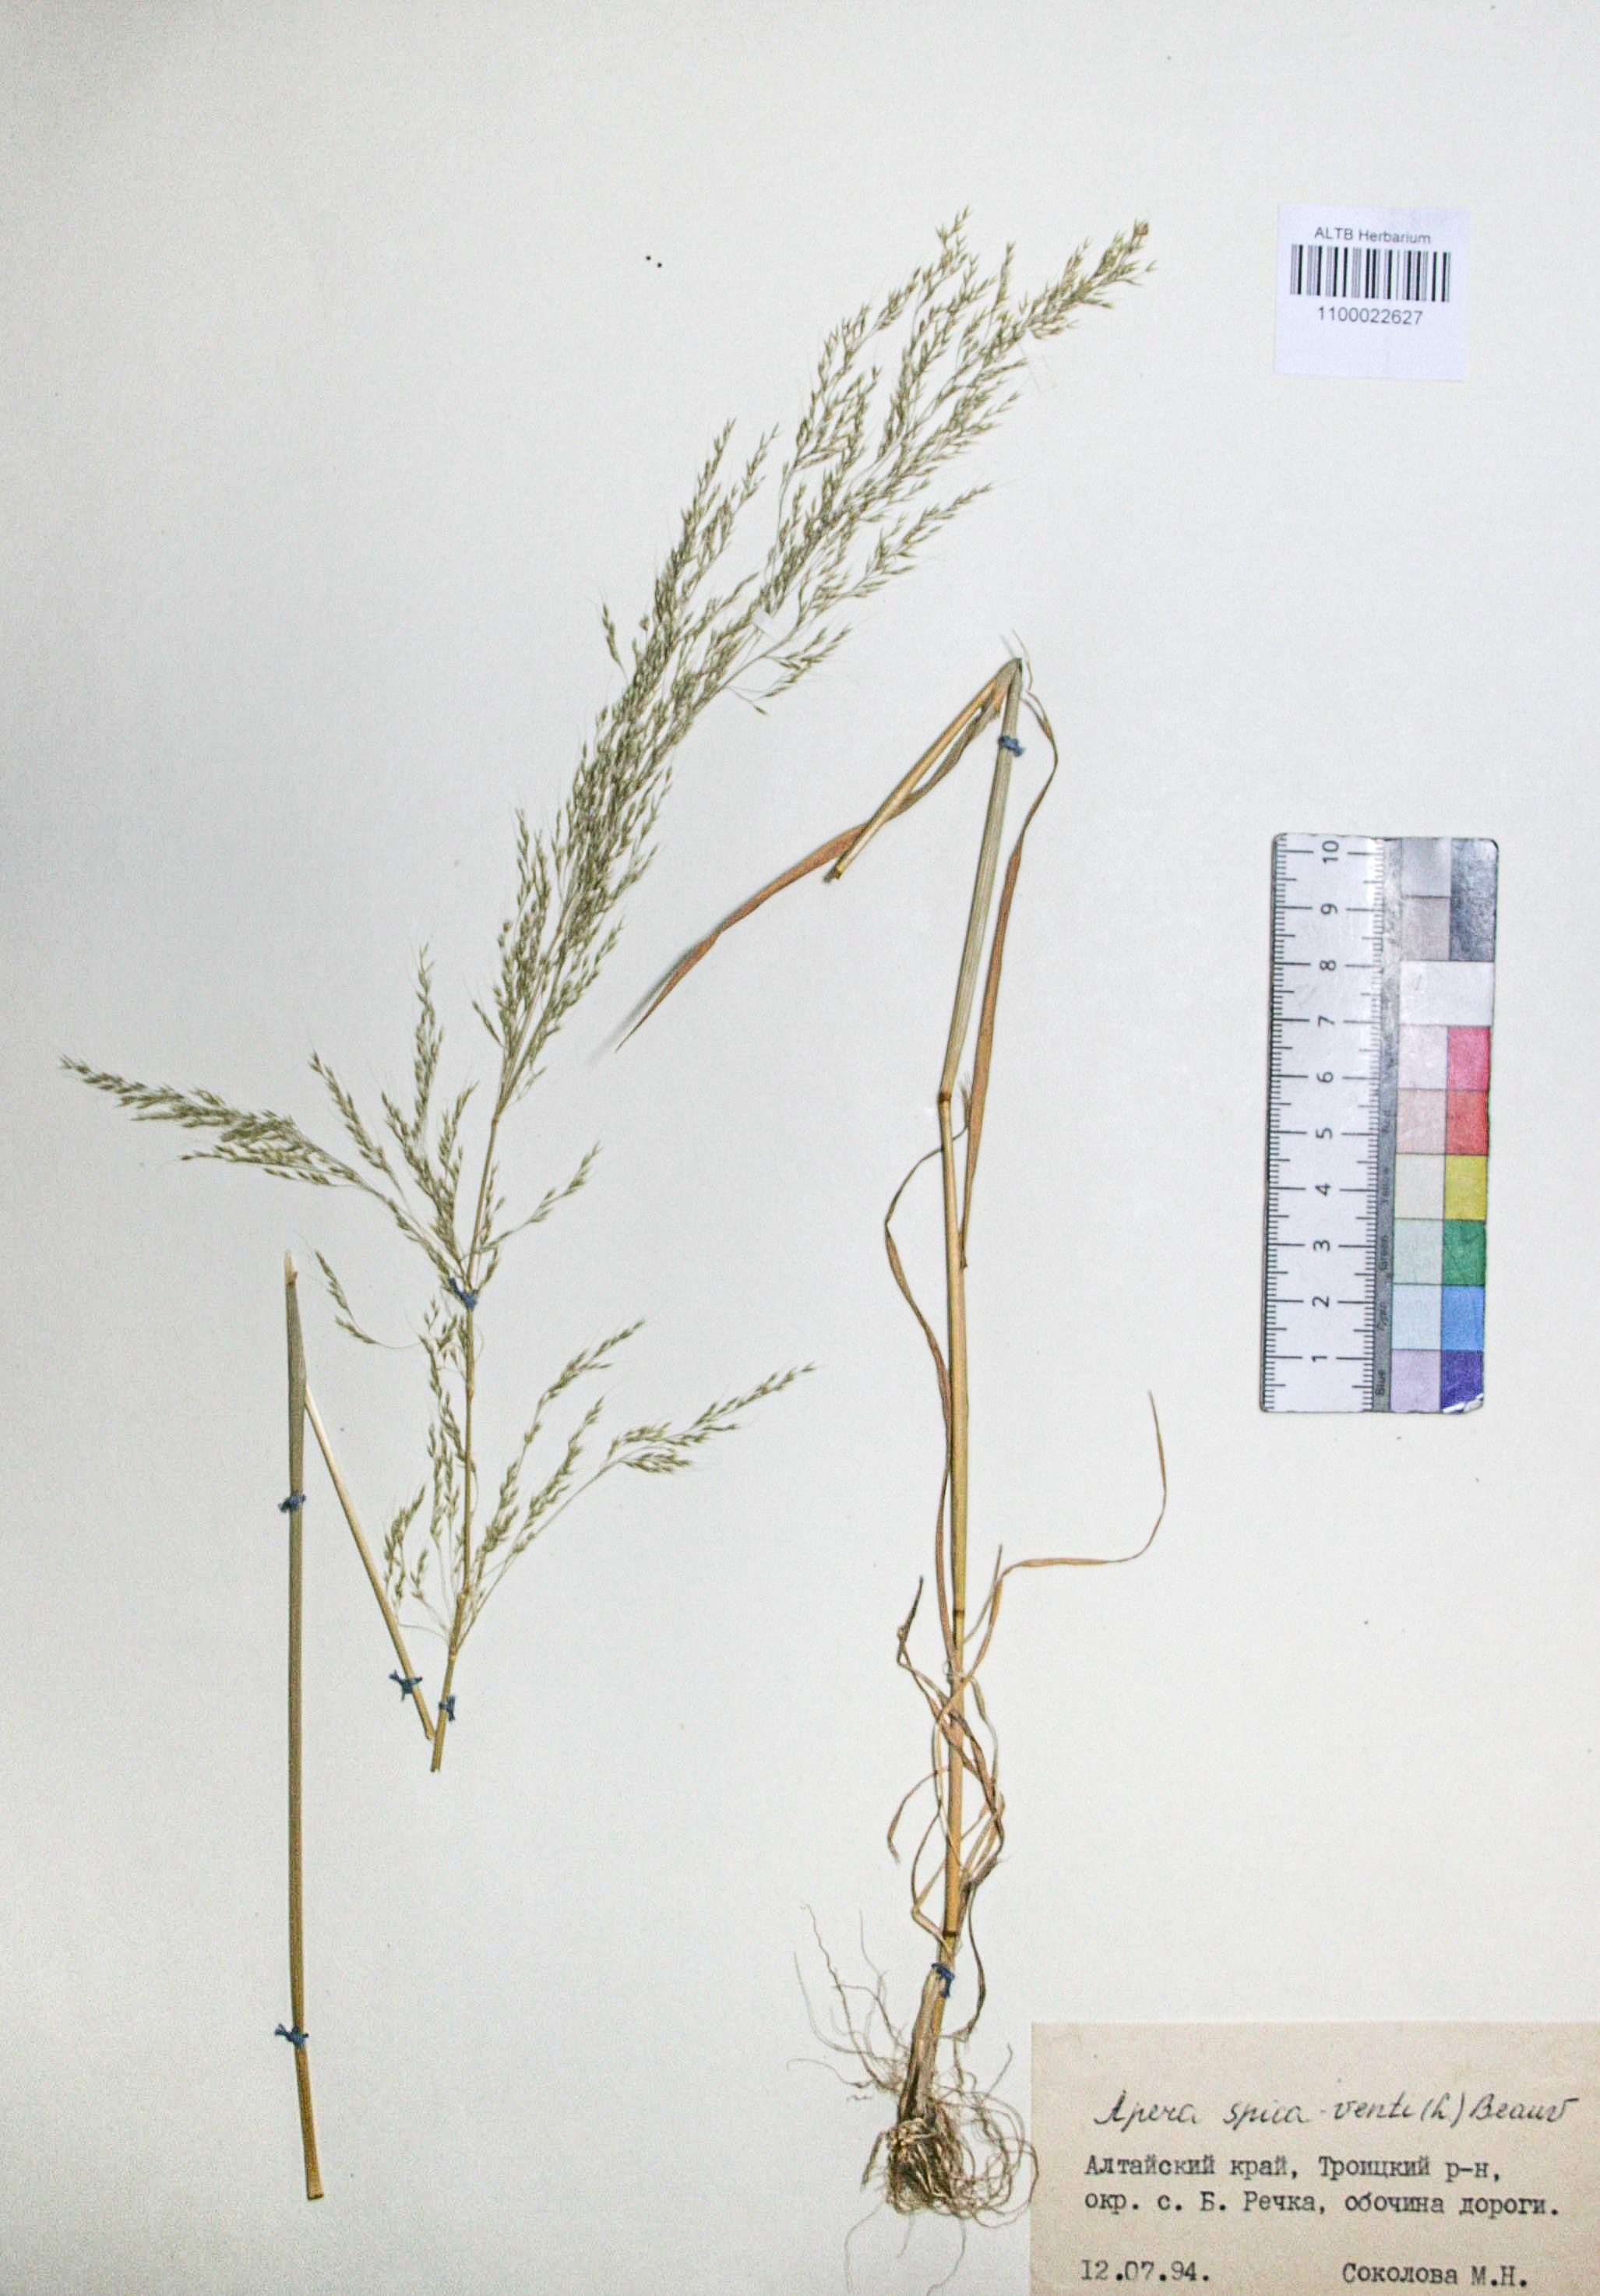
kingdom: Plantae
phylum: Tracheophyta
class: Liliopsida
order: Poales
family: Poaceae
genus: Apera
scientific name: Apera spica-venti
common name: Loose silky-bent
